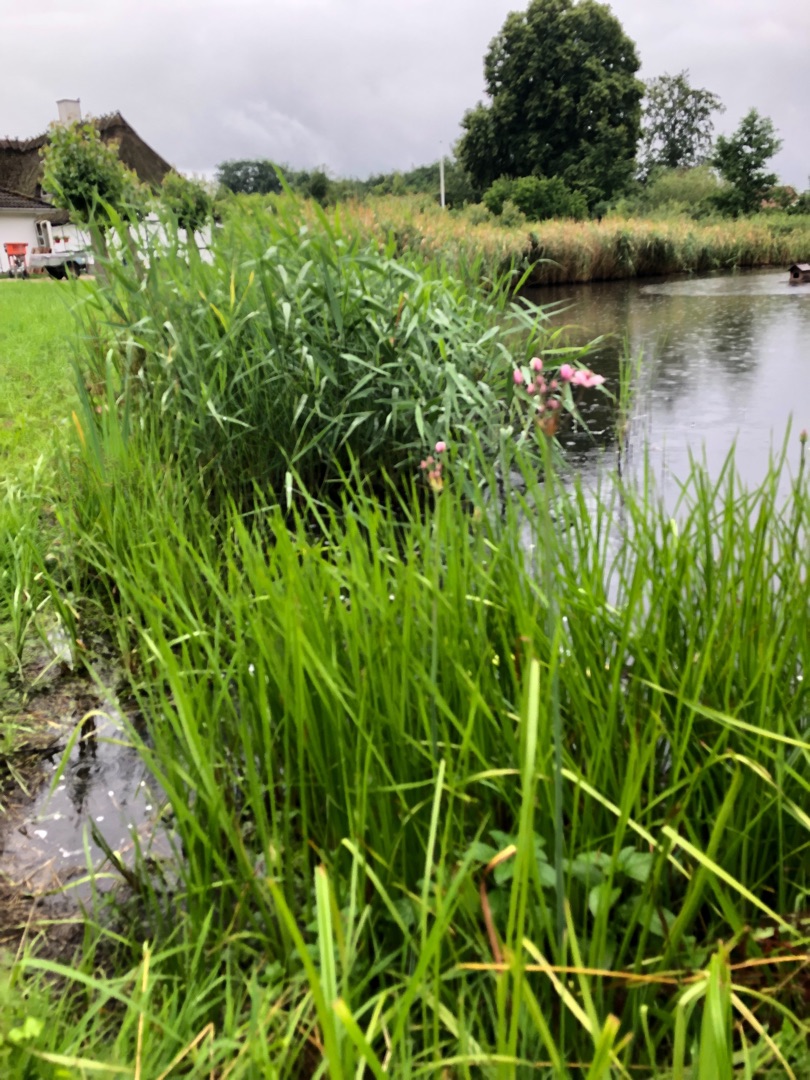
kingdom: Plantae
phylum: Tracheophyta
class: Liliopsida
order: Alismatales
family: Butomaceae
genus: Butomus
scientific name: Butomus umbellatus
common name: Brudelys
